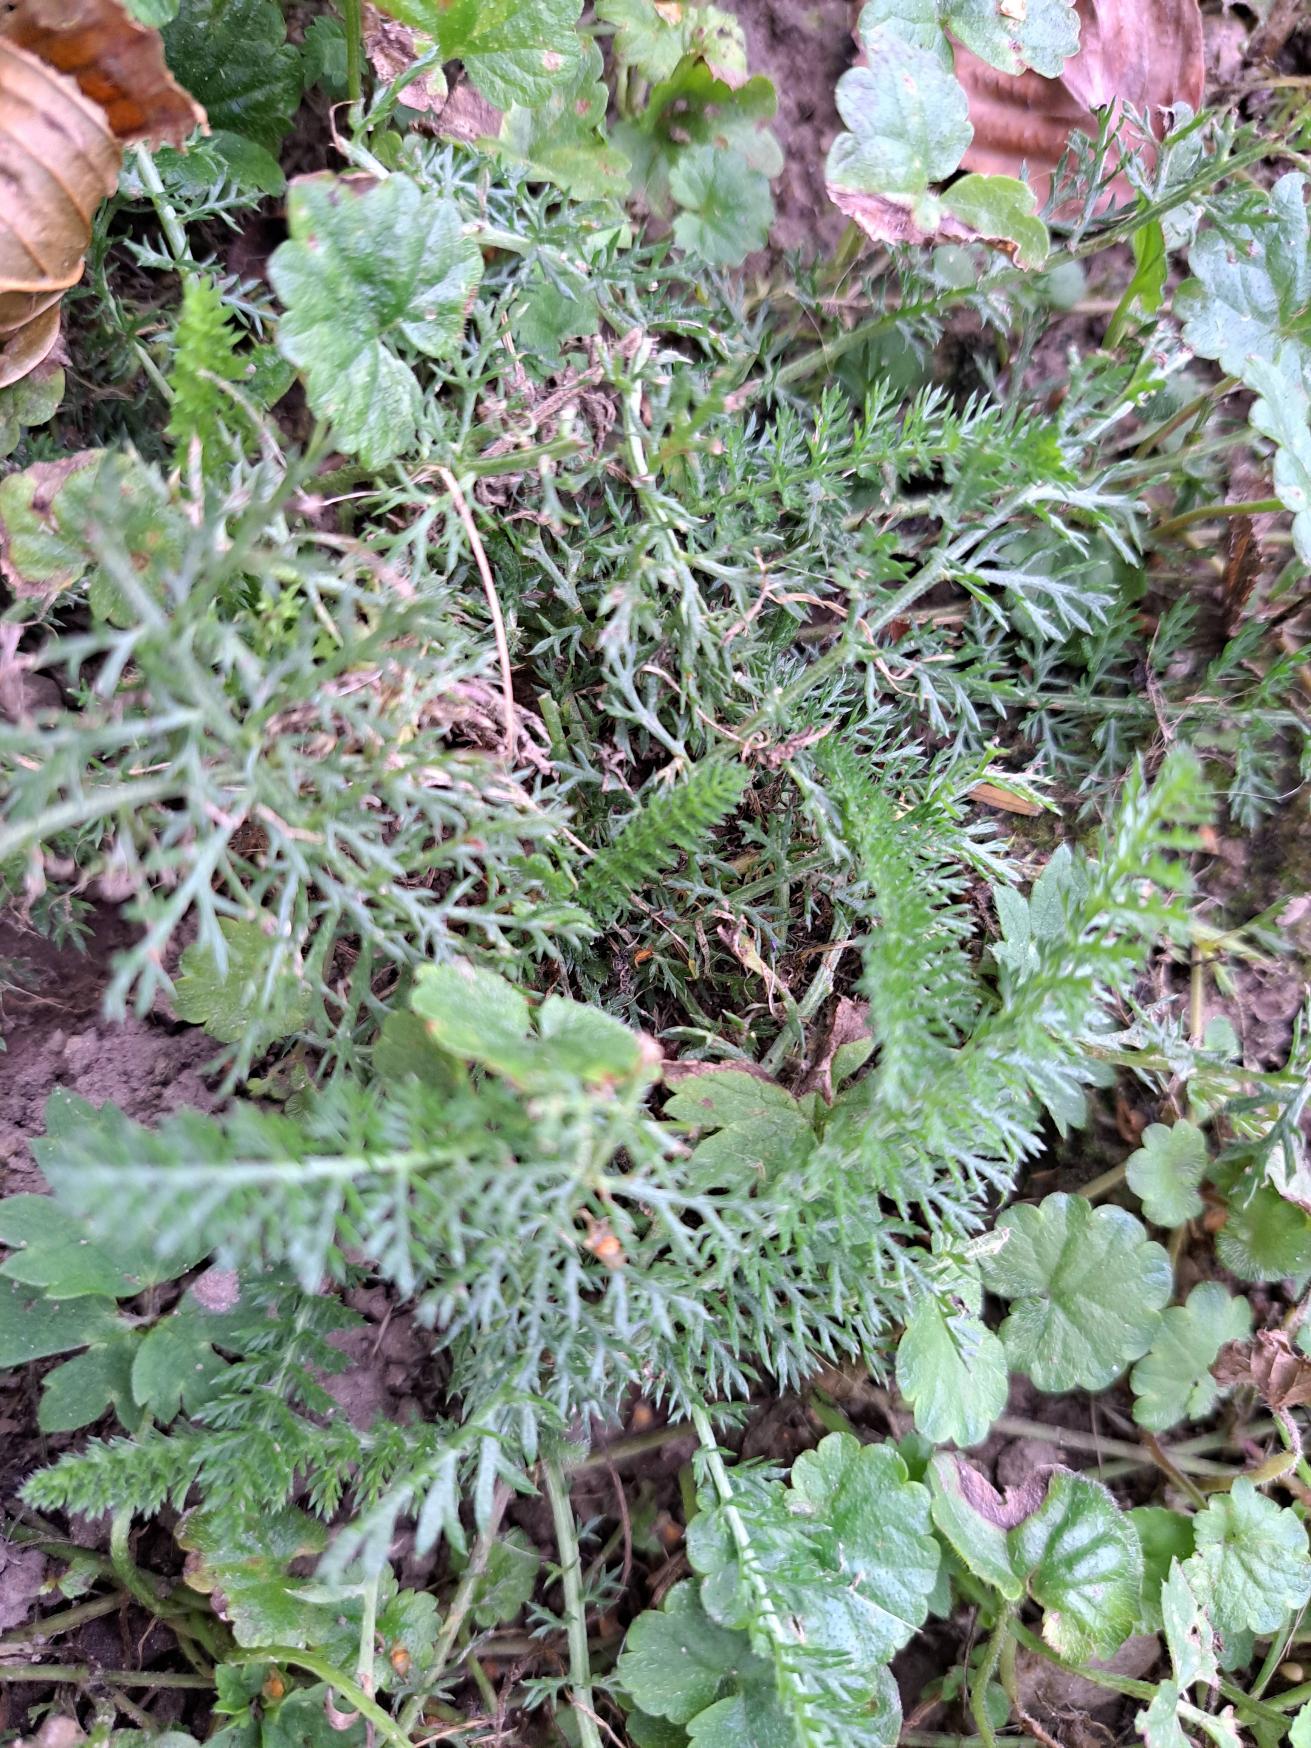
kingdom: Plantae
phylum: Tracheophyta
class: Magnoliopsida
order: Asterales
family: Asteraceae
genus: Achillea
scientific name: Achillea millefolium
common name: Almindelig røllike
